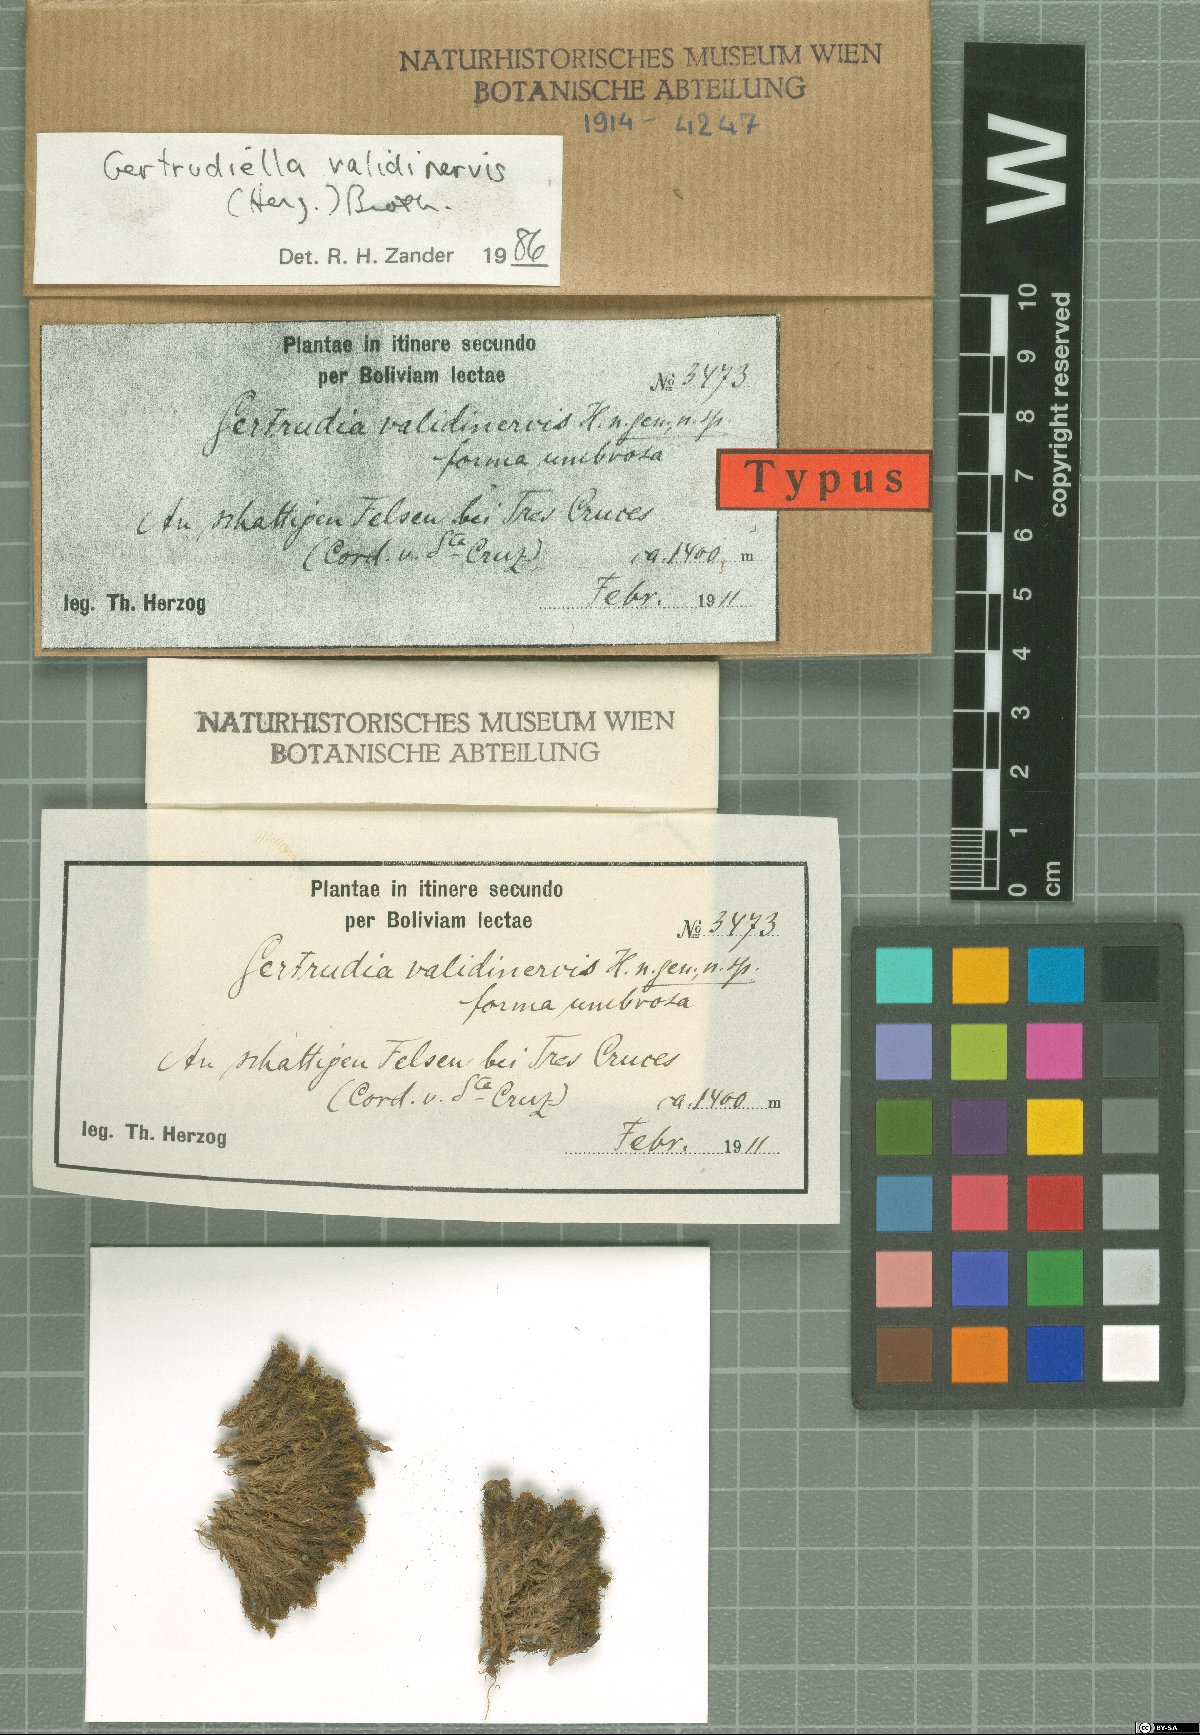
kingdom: Plantae
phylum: Bryophyta
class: Bryopsida
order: Pottiales
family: Pottiaceae
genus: Gertrudiella
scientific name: Gertrudiella uncinicoma
